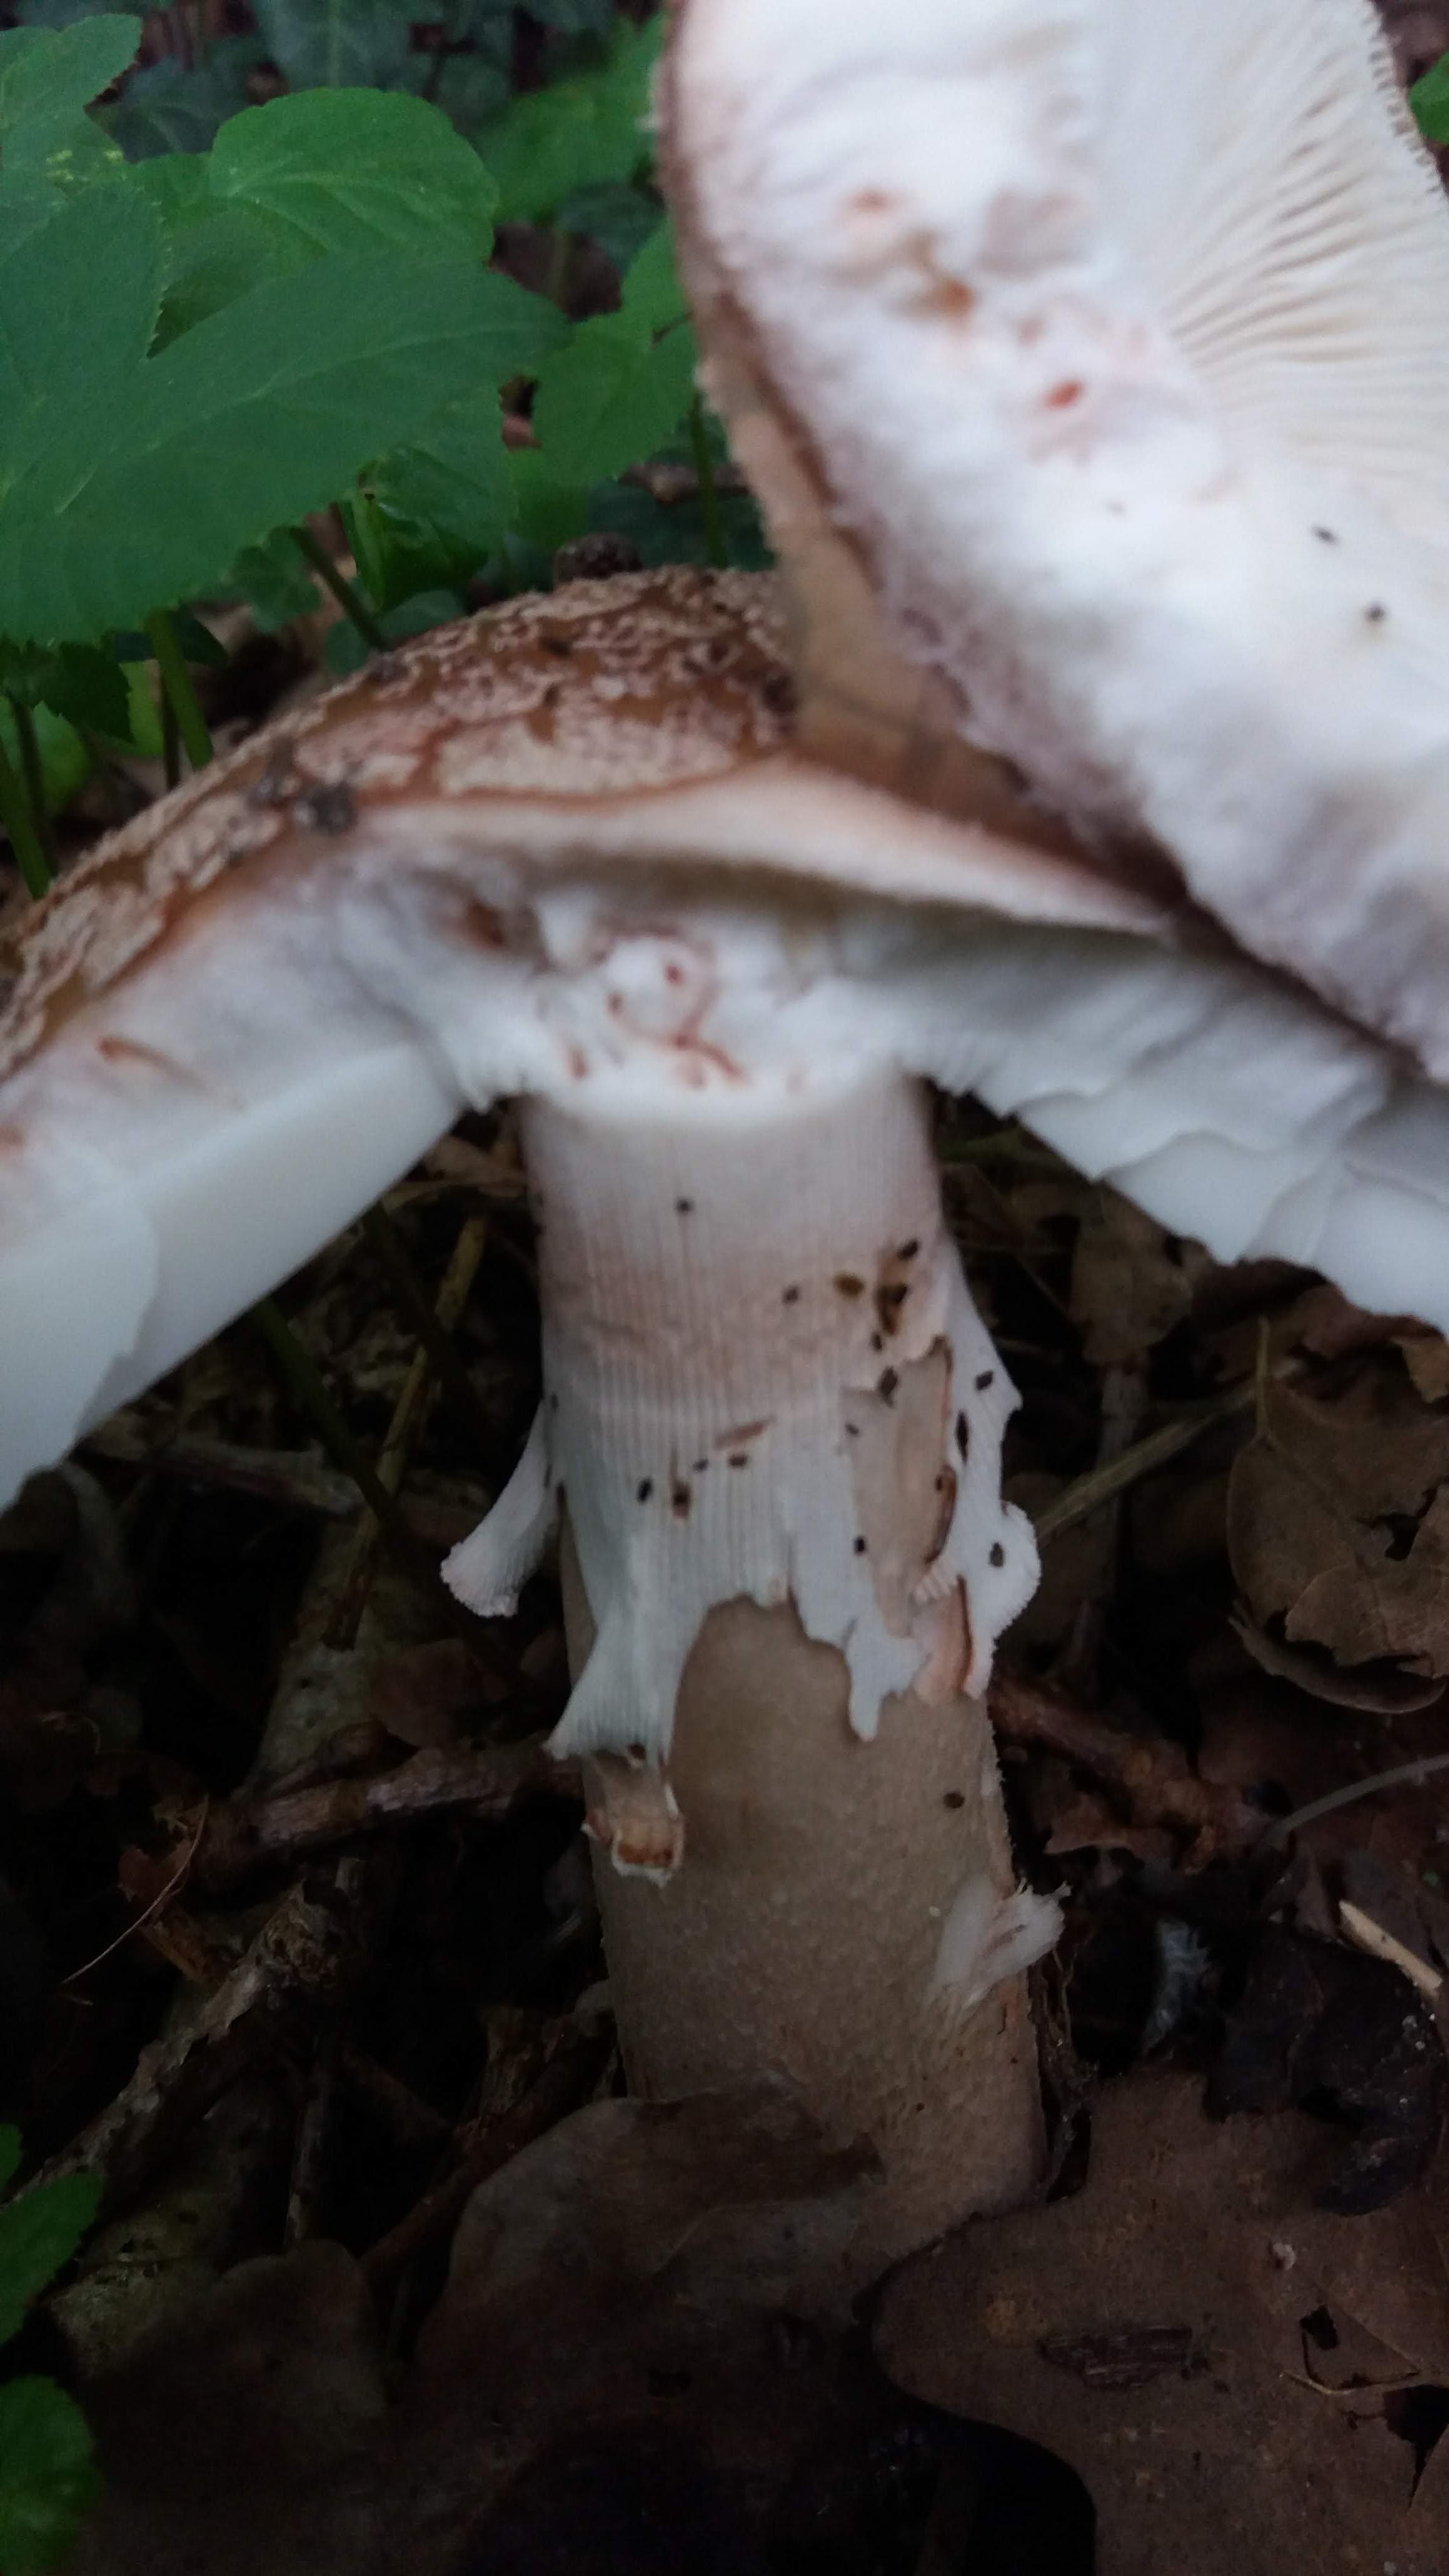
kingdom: Fungi
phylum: Basidiomycota
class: Agaricomycetes
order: Agaricales
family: Amanitaceae
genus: Amanita
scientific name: Amanita rubescens
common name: rødmende fluesvamp
